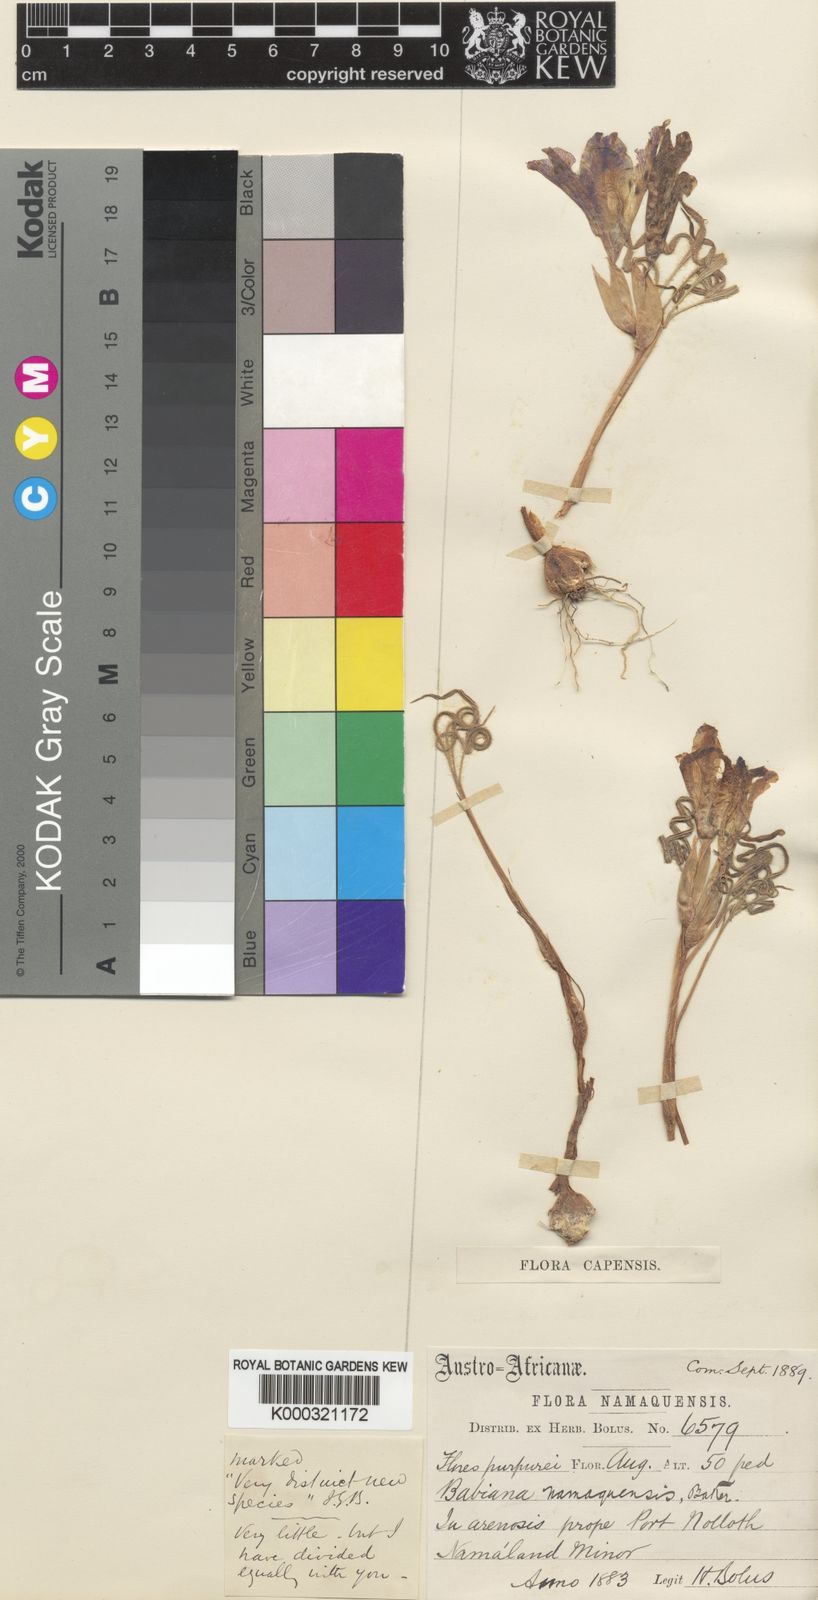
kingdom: Plantae
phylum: Tracheophyta
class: Liliopsida
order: Asparagales
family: Iridaceae
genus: Babiana
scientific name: Babiana namaquensis
